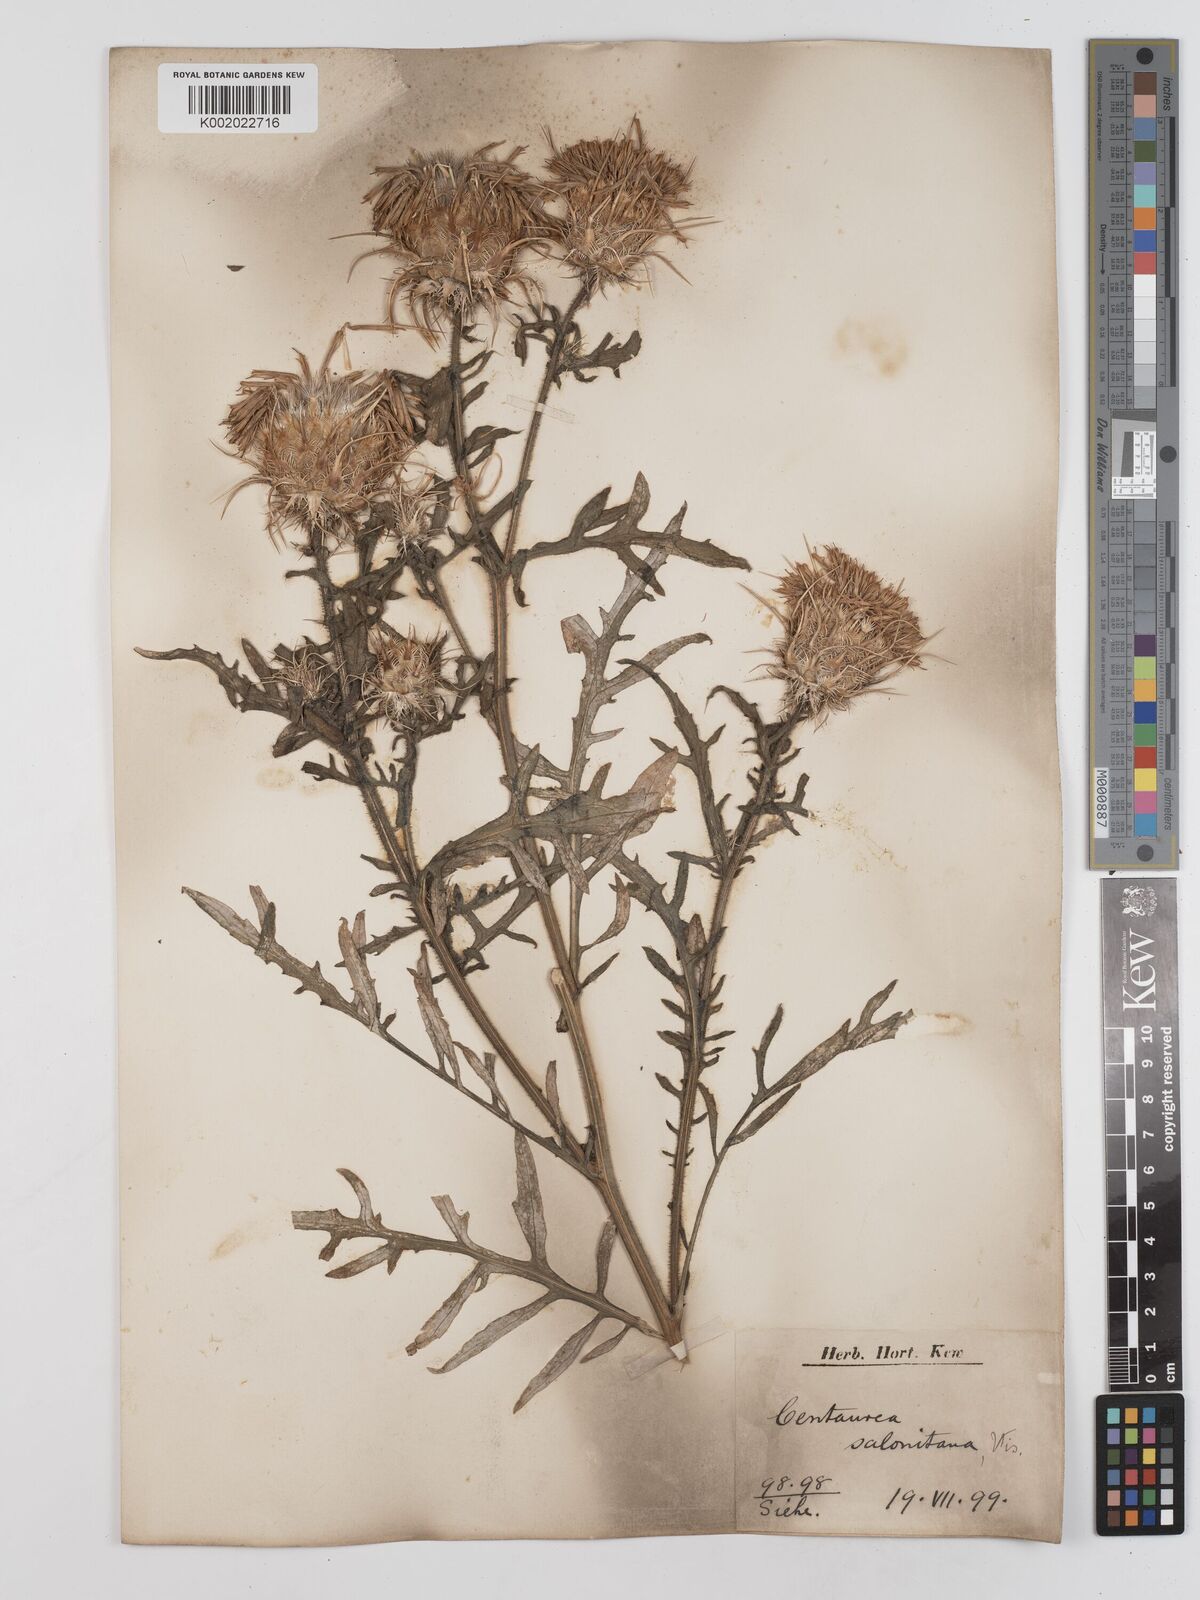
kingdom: Plantae
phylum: Tracheophyta
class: Magnoliopsida
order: Asterales
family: Asteraceae
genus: Centaurea
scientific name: Centaurea salonitana
